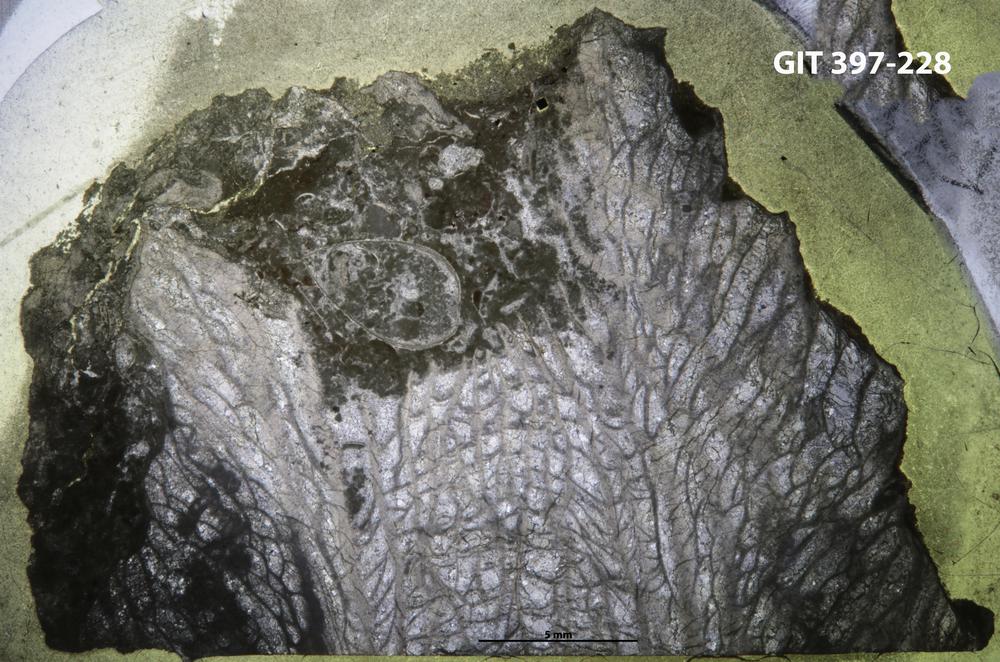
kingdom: Animalia
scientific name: Animalia
